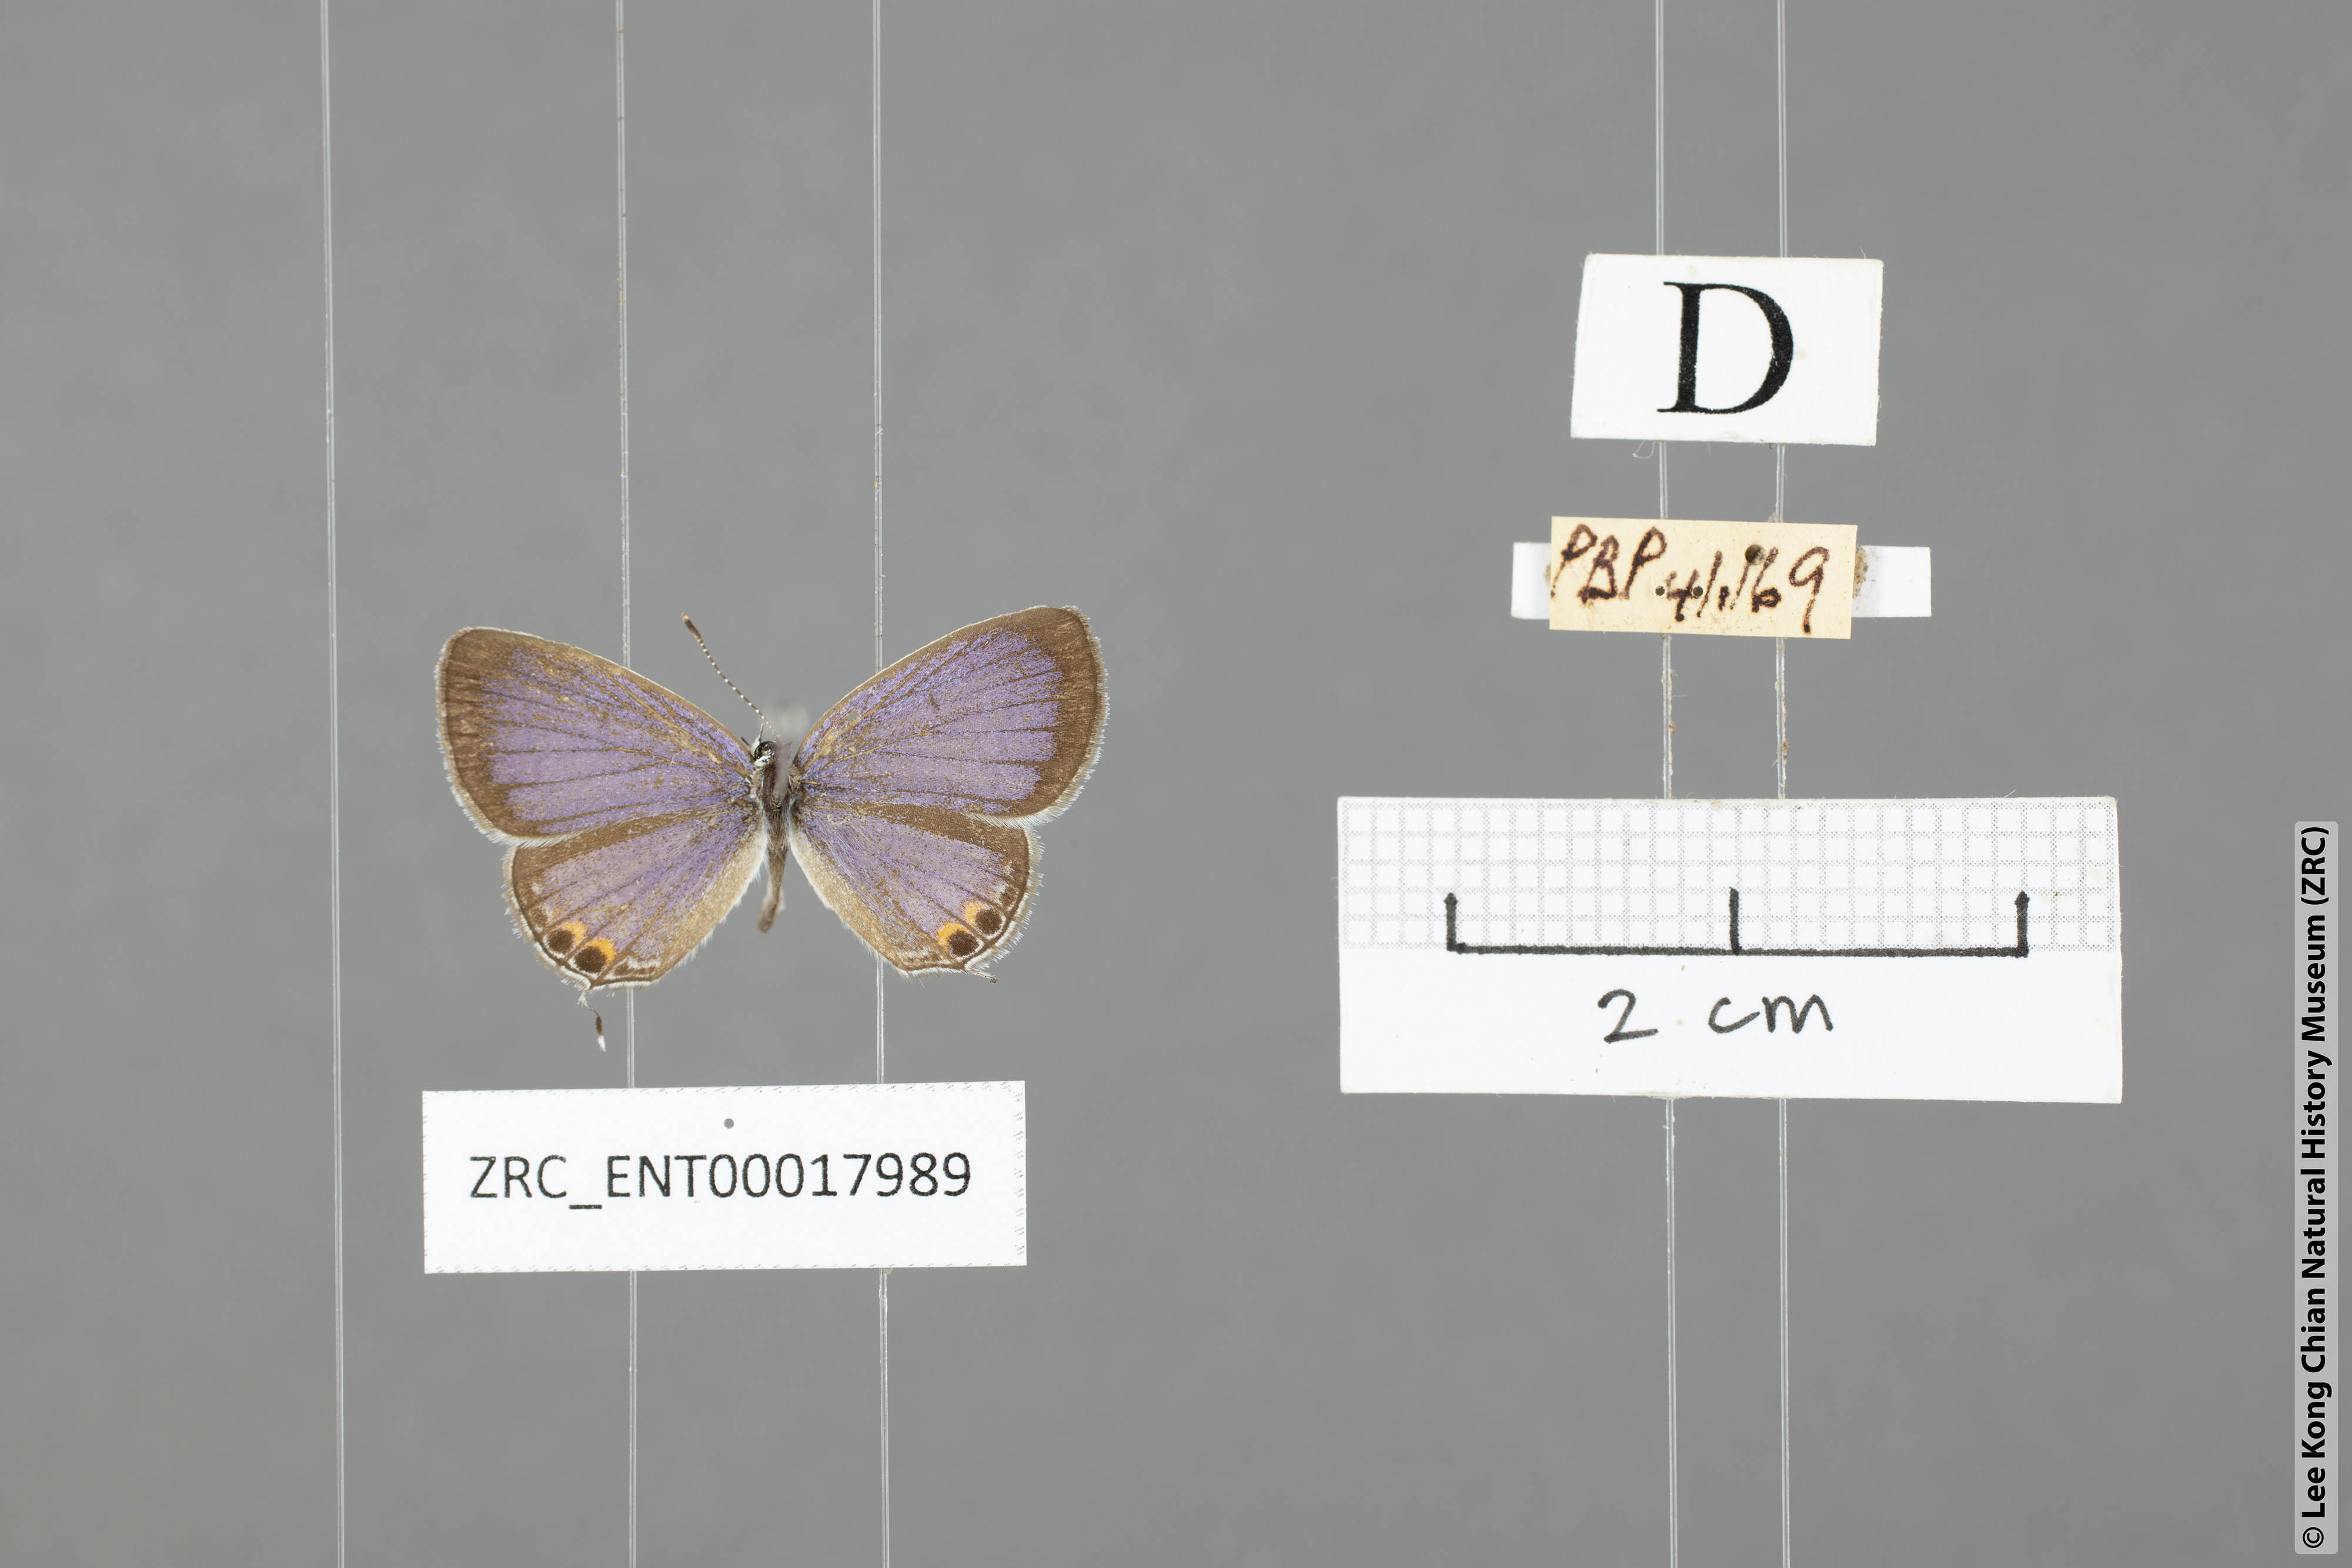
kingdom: Animalia
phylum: Arthropoda
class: Insecta
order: Lepidoptera
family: Lycaenidae
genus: Everes
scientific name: Everes lacturnus
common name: Orange-tipped pea-blue
